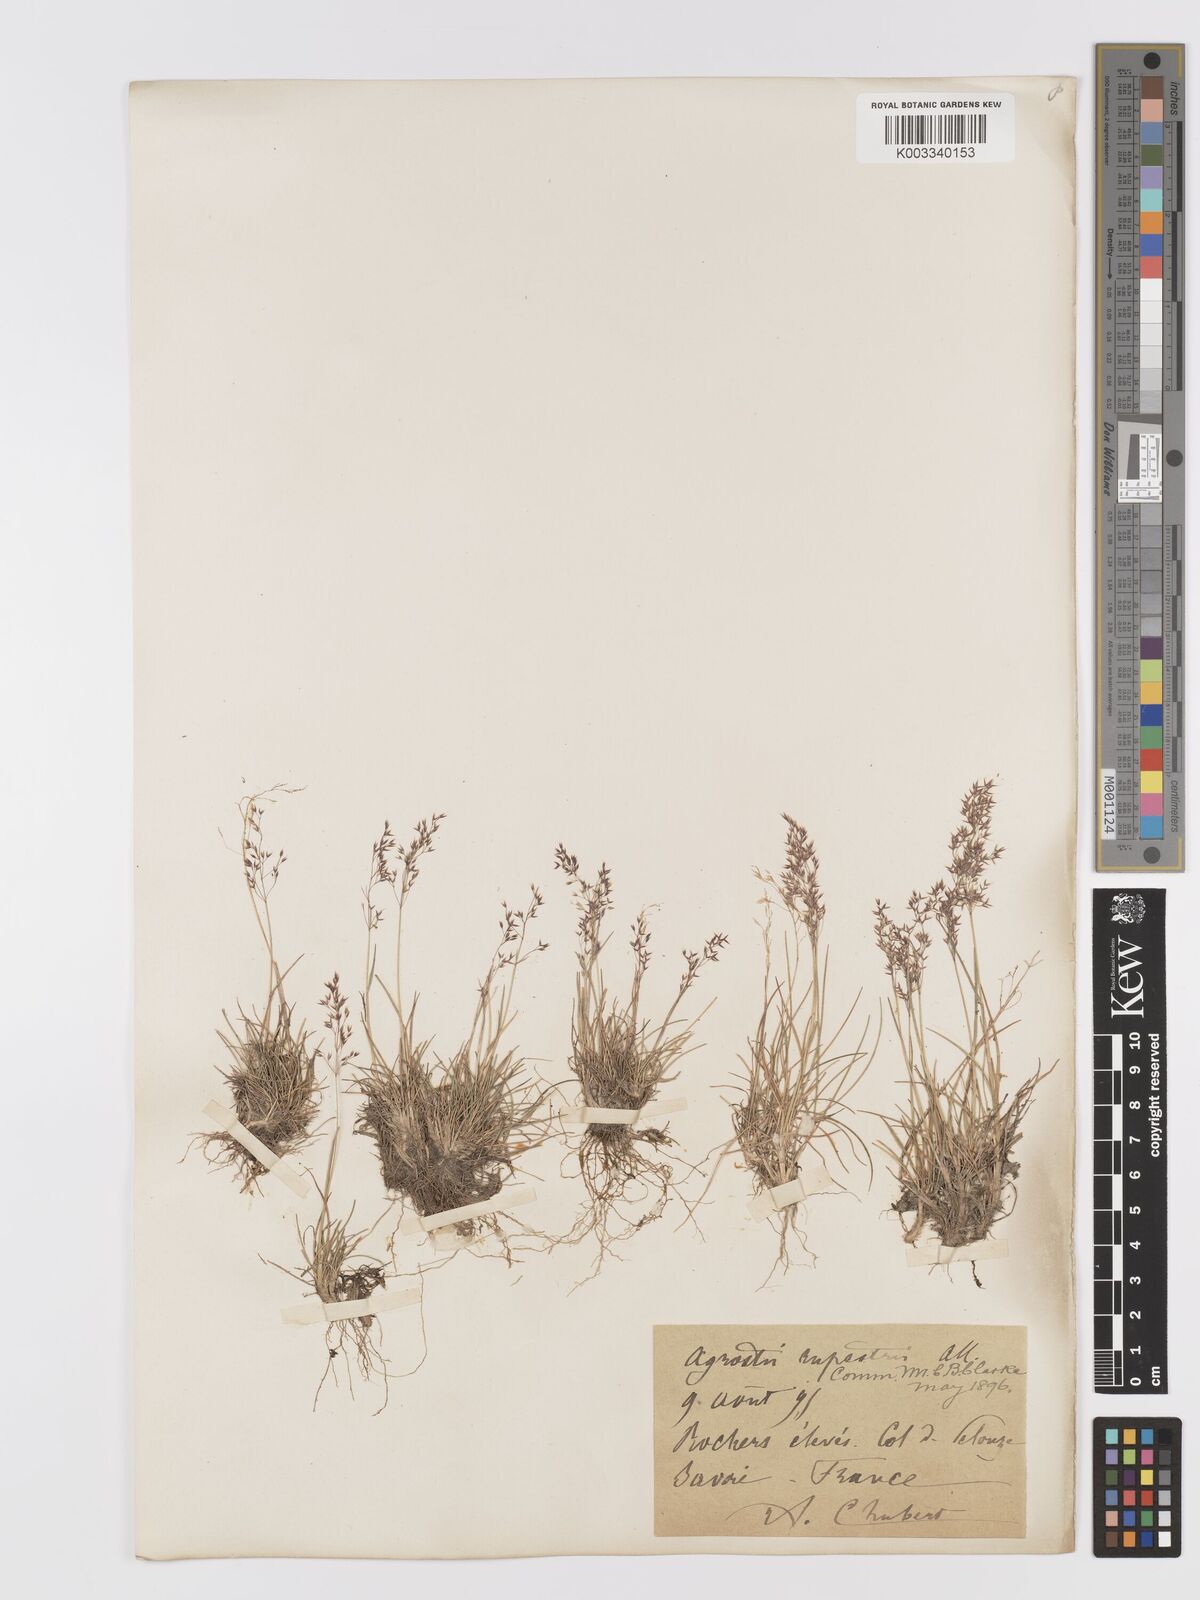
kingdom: Plantae
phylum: Tracheophyta
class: Liliopsida
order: Poales
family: Poaceae
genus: Agrostis
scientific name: Agrostis rupestris
